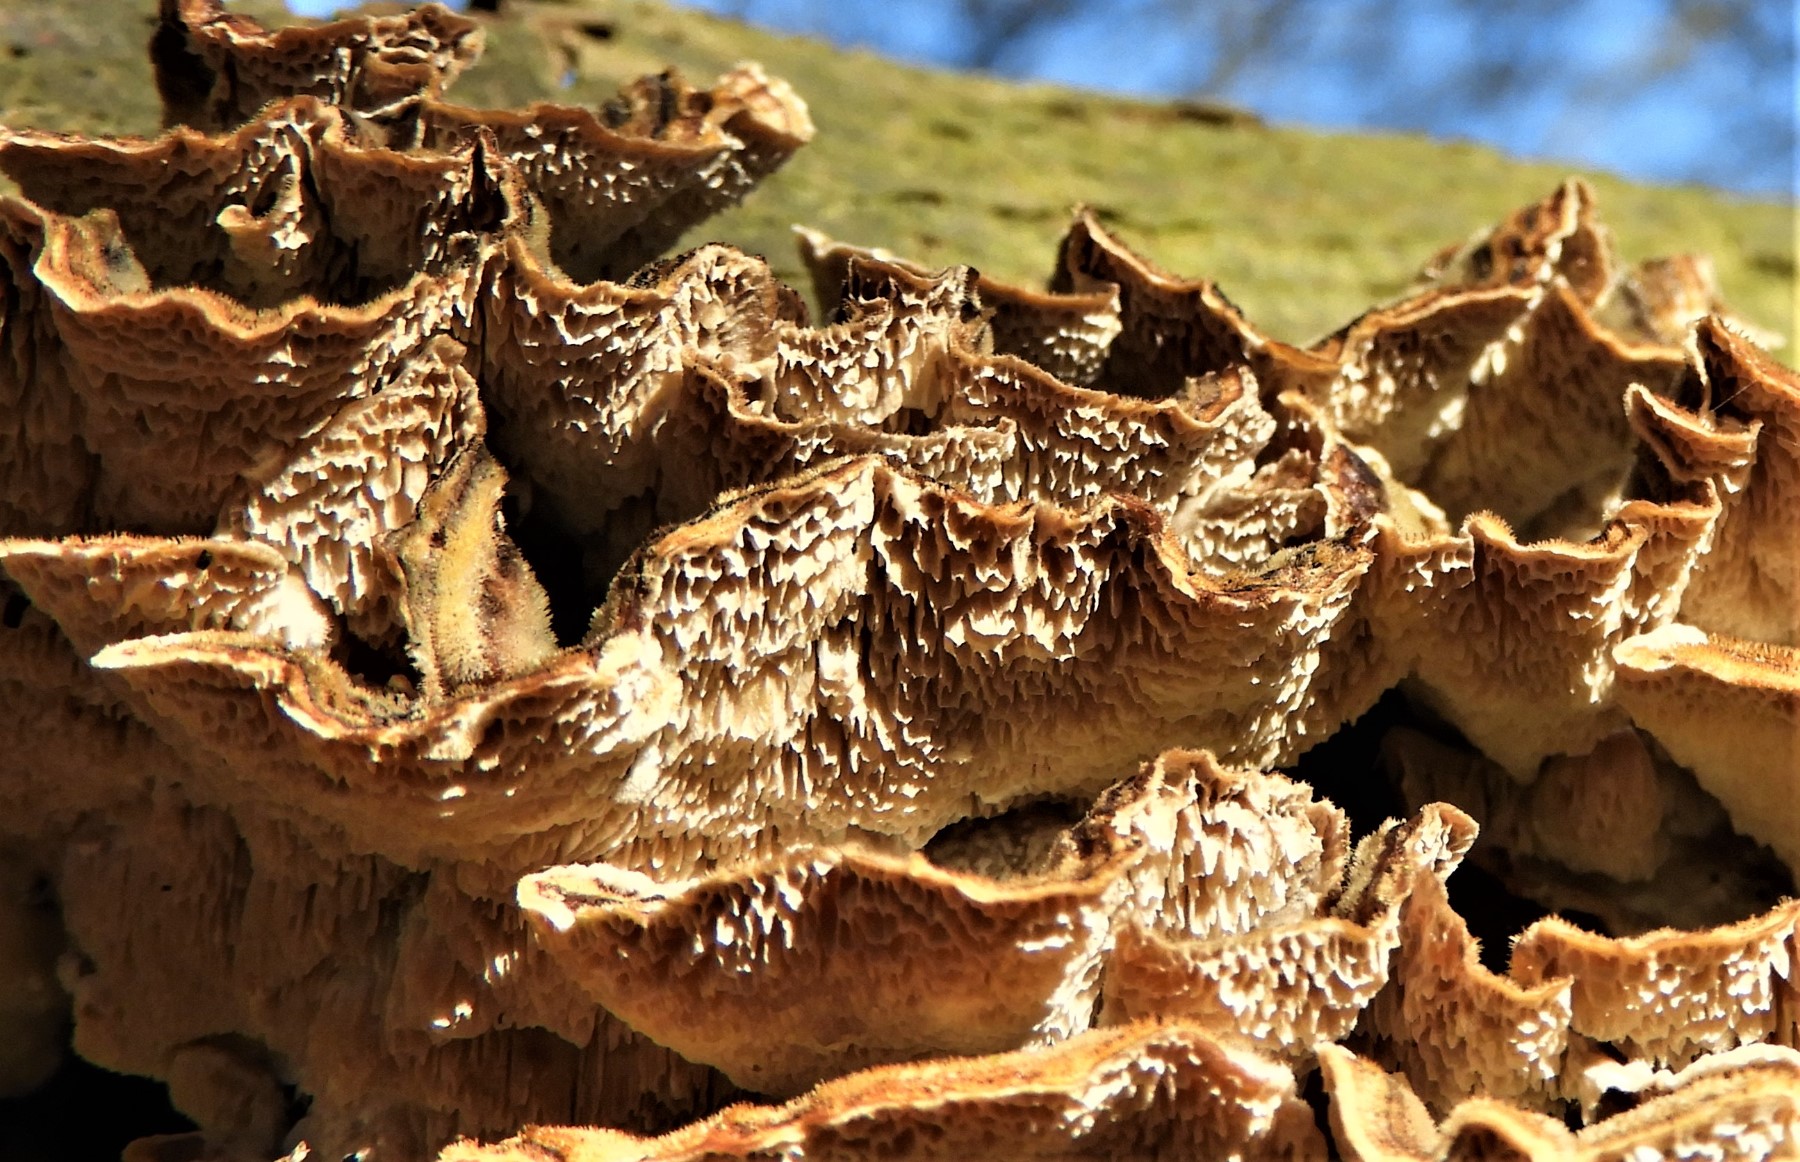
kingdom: Fungi
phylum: Basidiomycota
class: Agaricomycetes
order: Polyporales
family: Polyporaceae
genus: Trametes
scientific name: Trametes versicolor
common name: broget læderporesvamp
